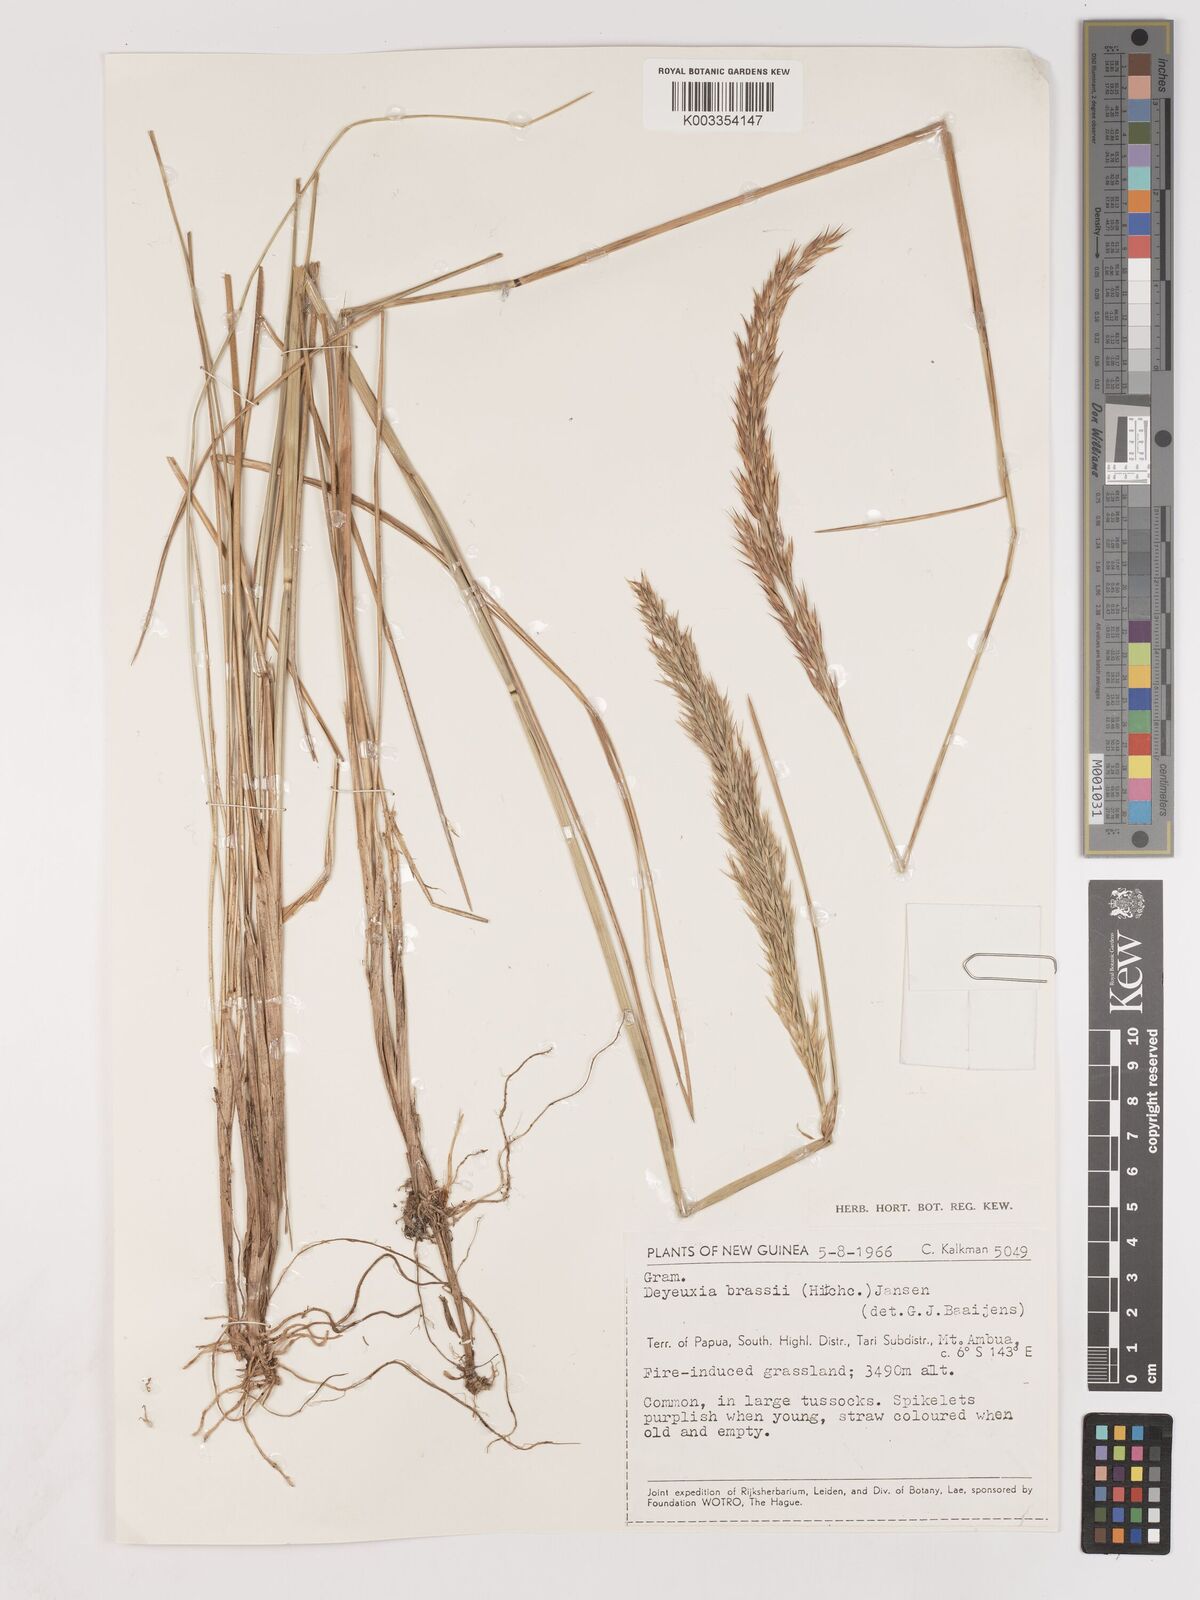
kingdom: Plantae
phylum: Tracheophyta
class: Liliopsida
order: Poales
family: Poaceae
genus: Calamagrostis
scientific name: Calamagrostis brassii
